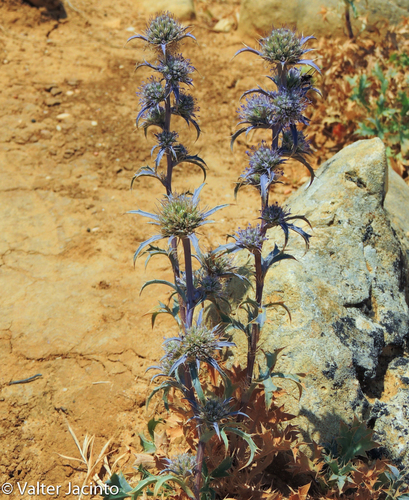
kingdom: Plantae
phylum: Tracheophyta
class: Magnoliopsida
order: Apiales
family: Apiaceae
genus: Eryngium
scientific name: Eryngium dilatatum
